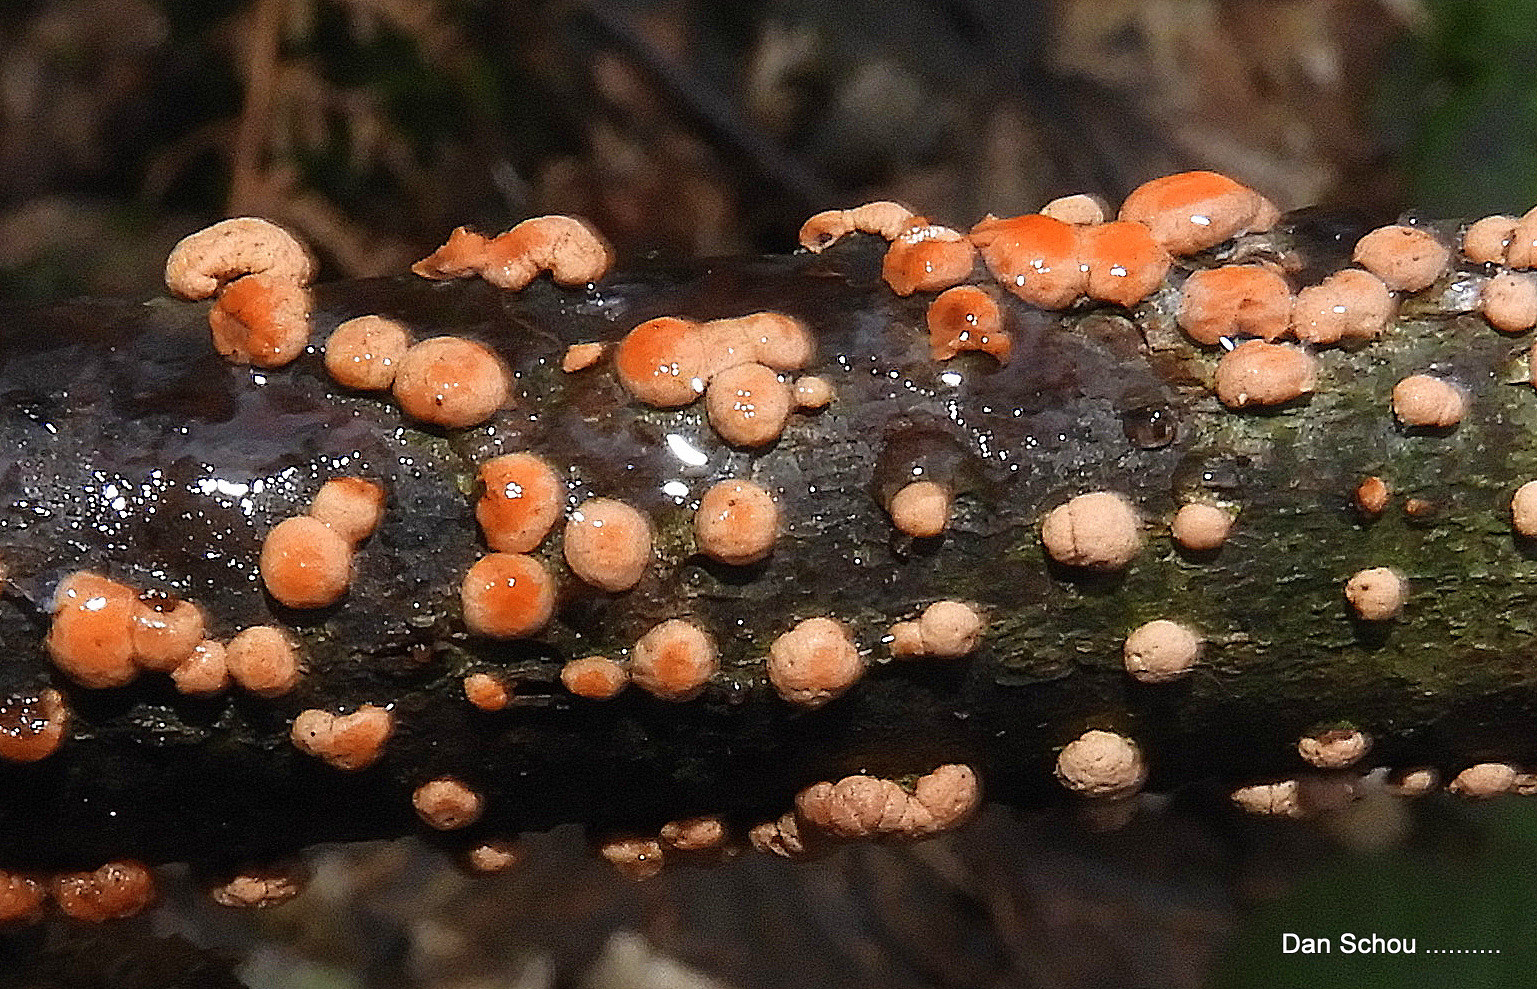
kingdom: Fungi
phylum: Ascomycota
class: Sordariomycetes
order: Hypocreales
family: Nectriaceae
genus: Nectria
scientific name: Nectria cinnabarina
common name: almindelig cinnobersvamp
